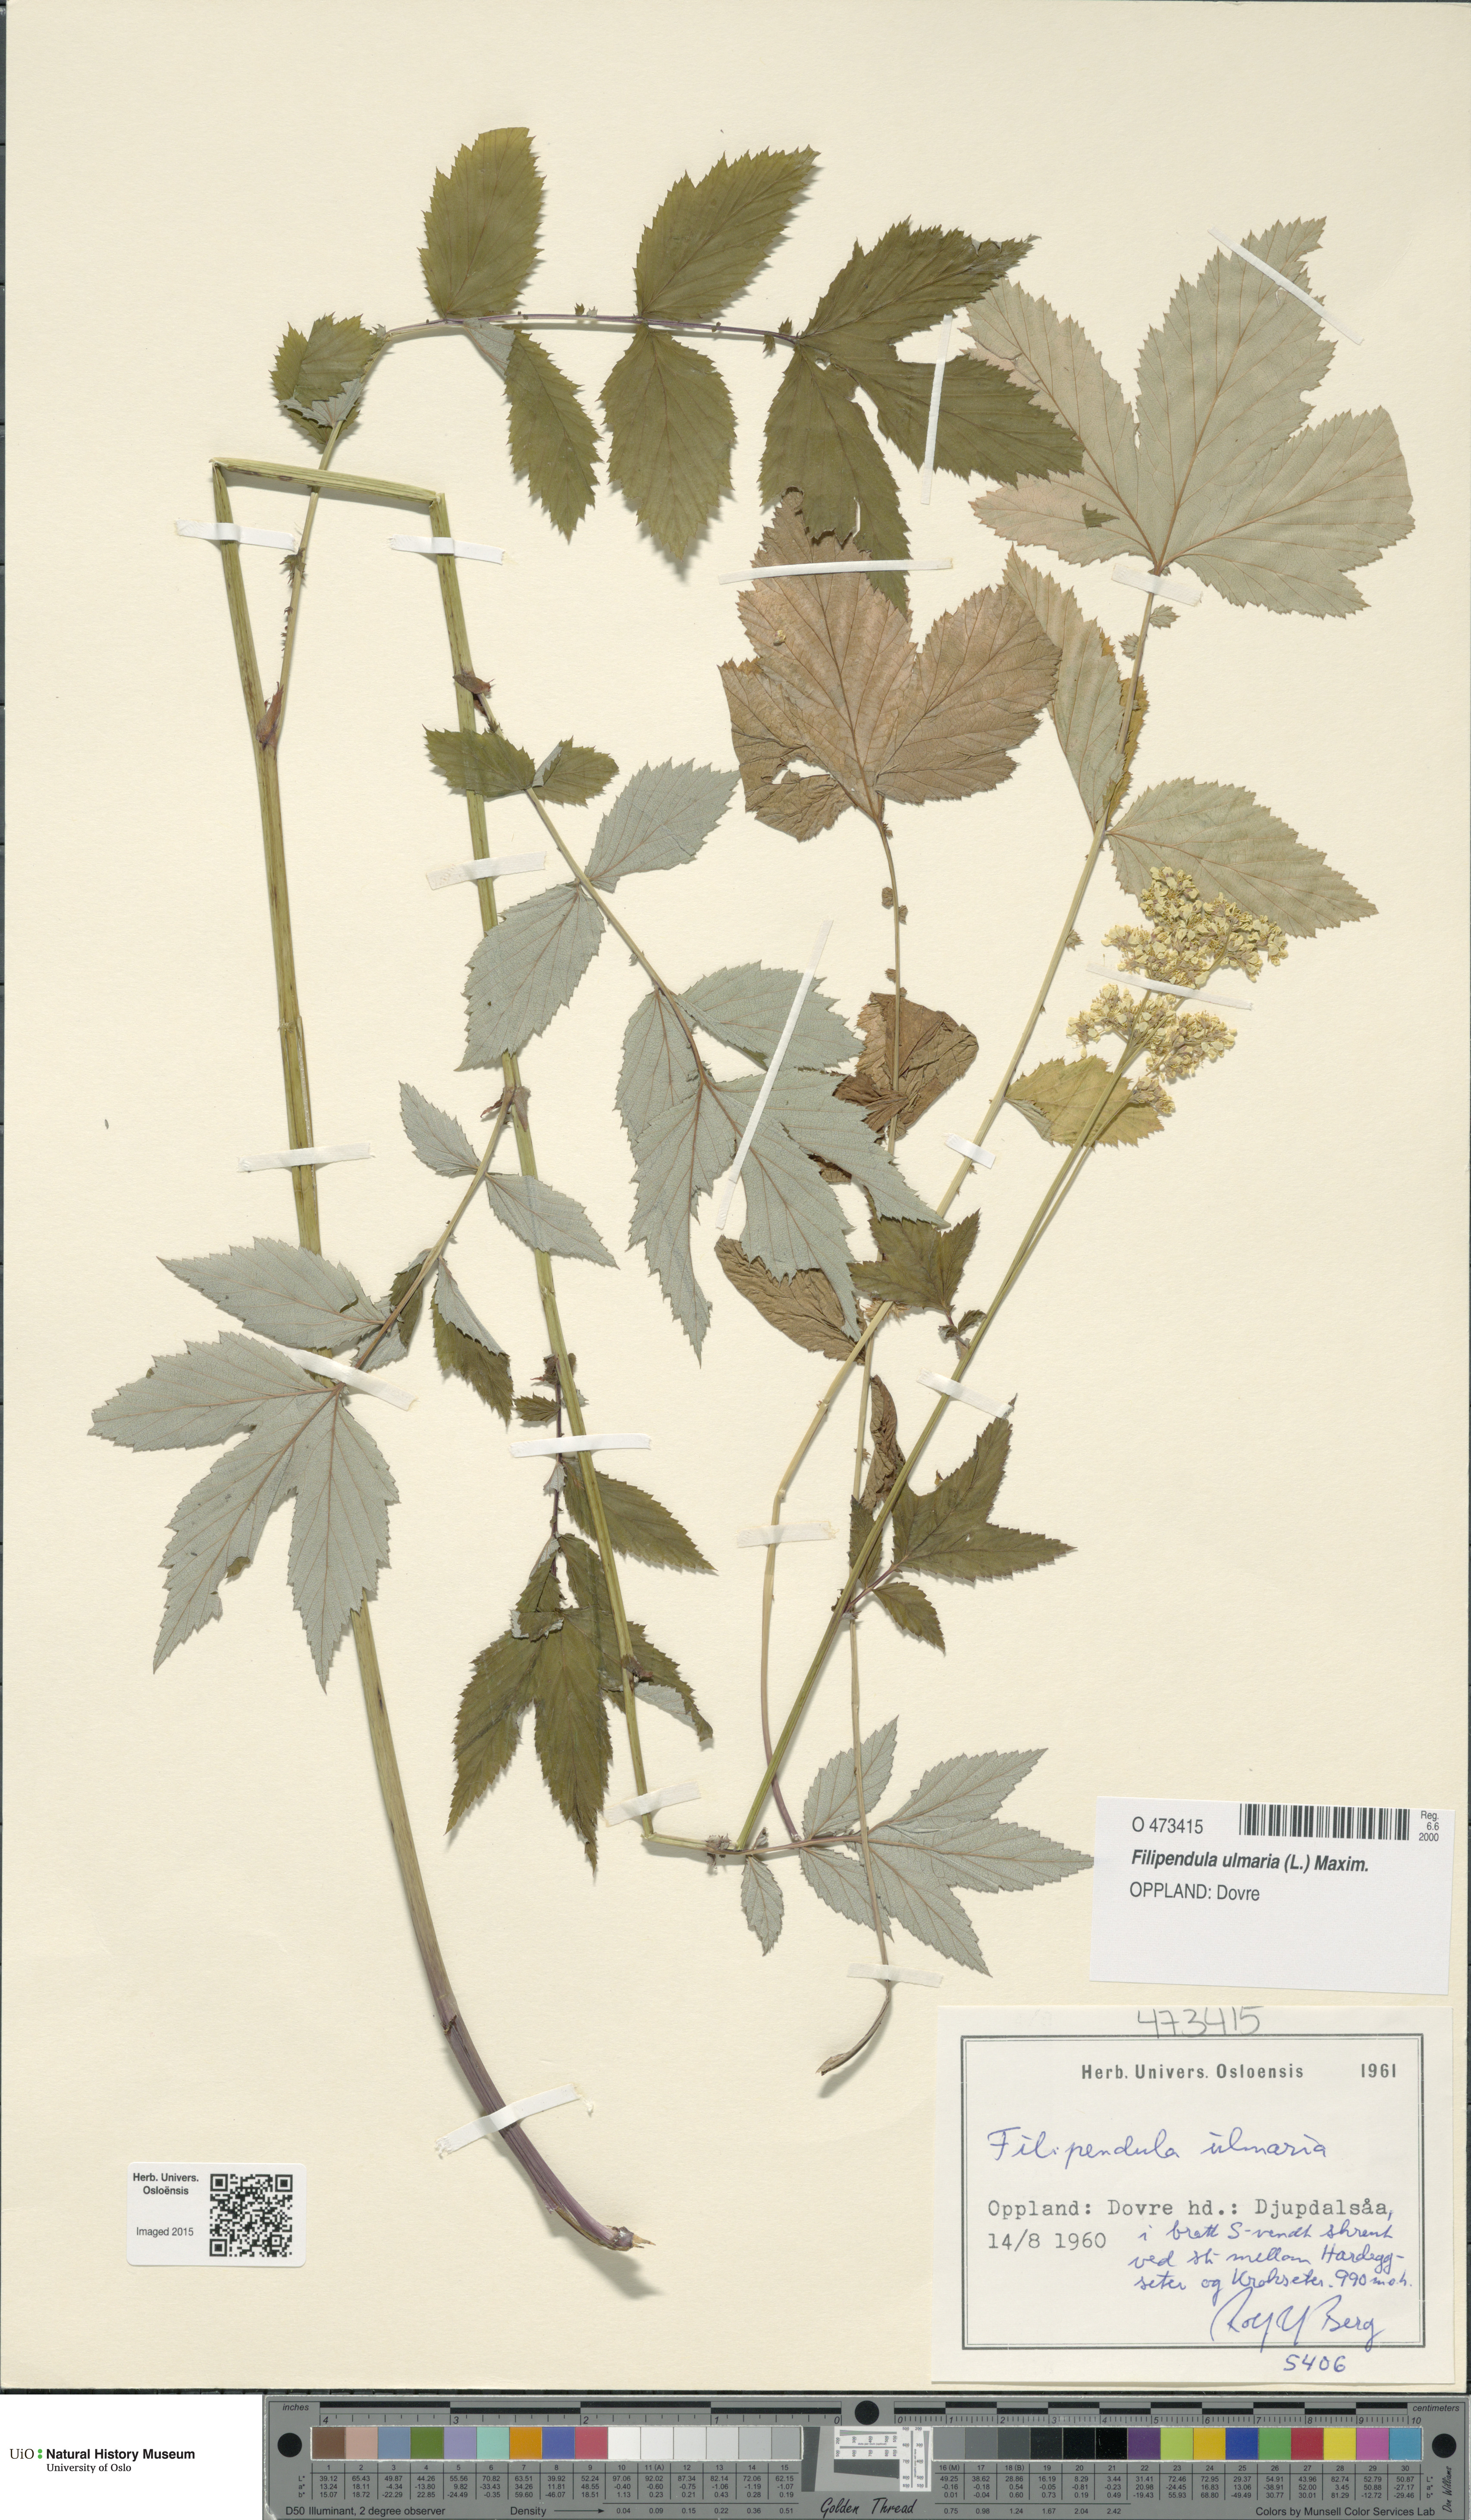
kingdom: Plantae
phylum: Tracheophyta
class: Magnoliopsida
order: Rosales
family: Rosaceae
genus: Filipendula
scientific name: Filipendula ulmaria
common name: Meadowsweet
